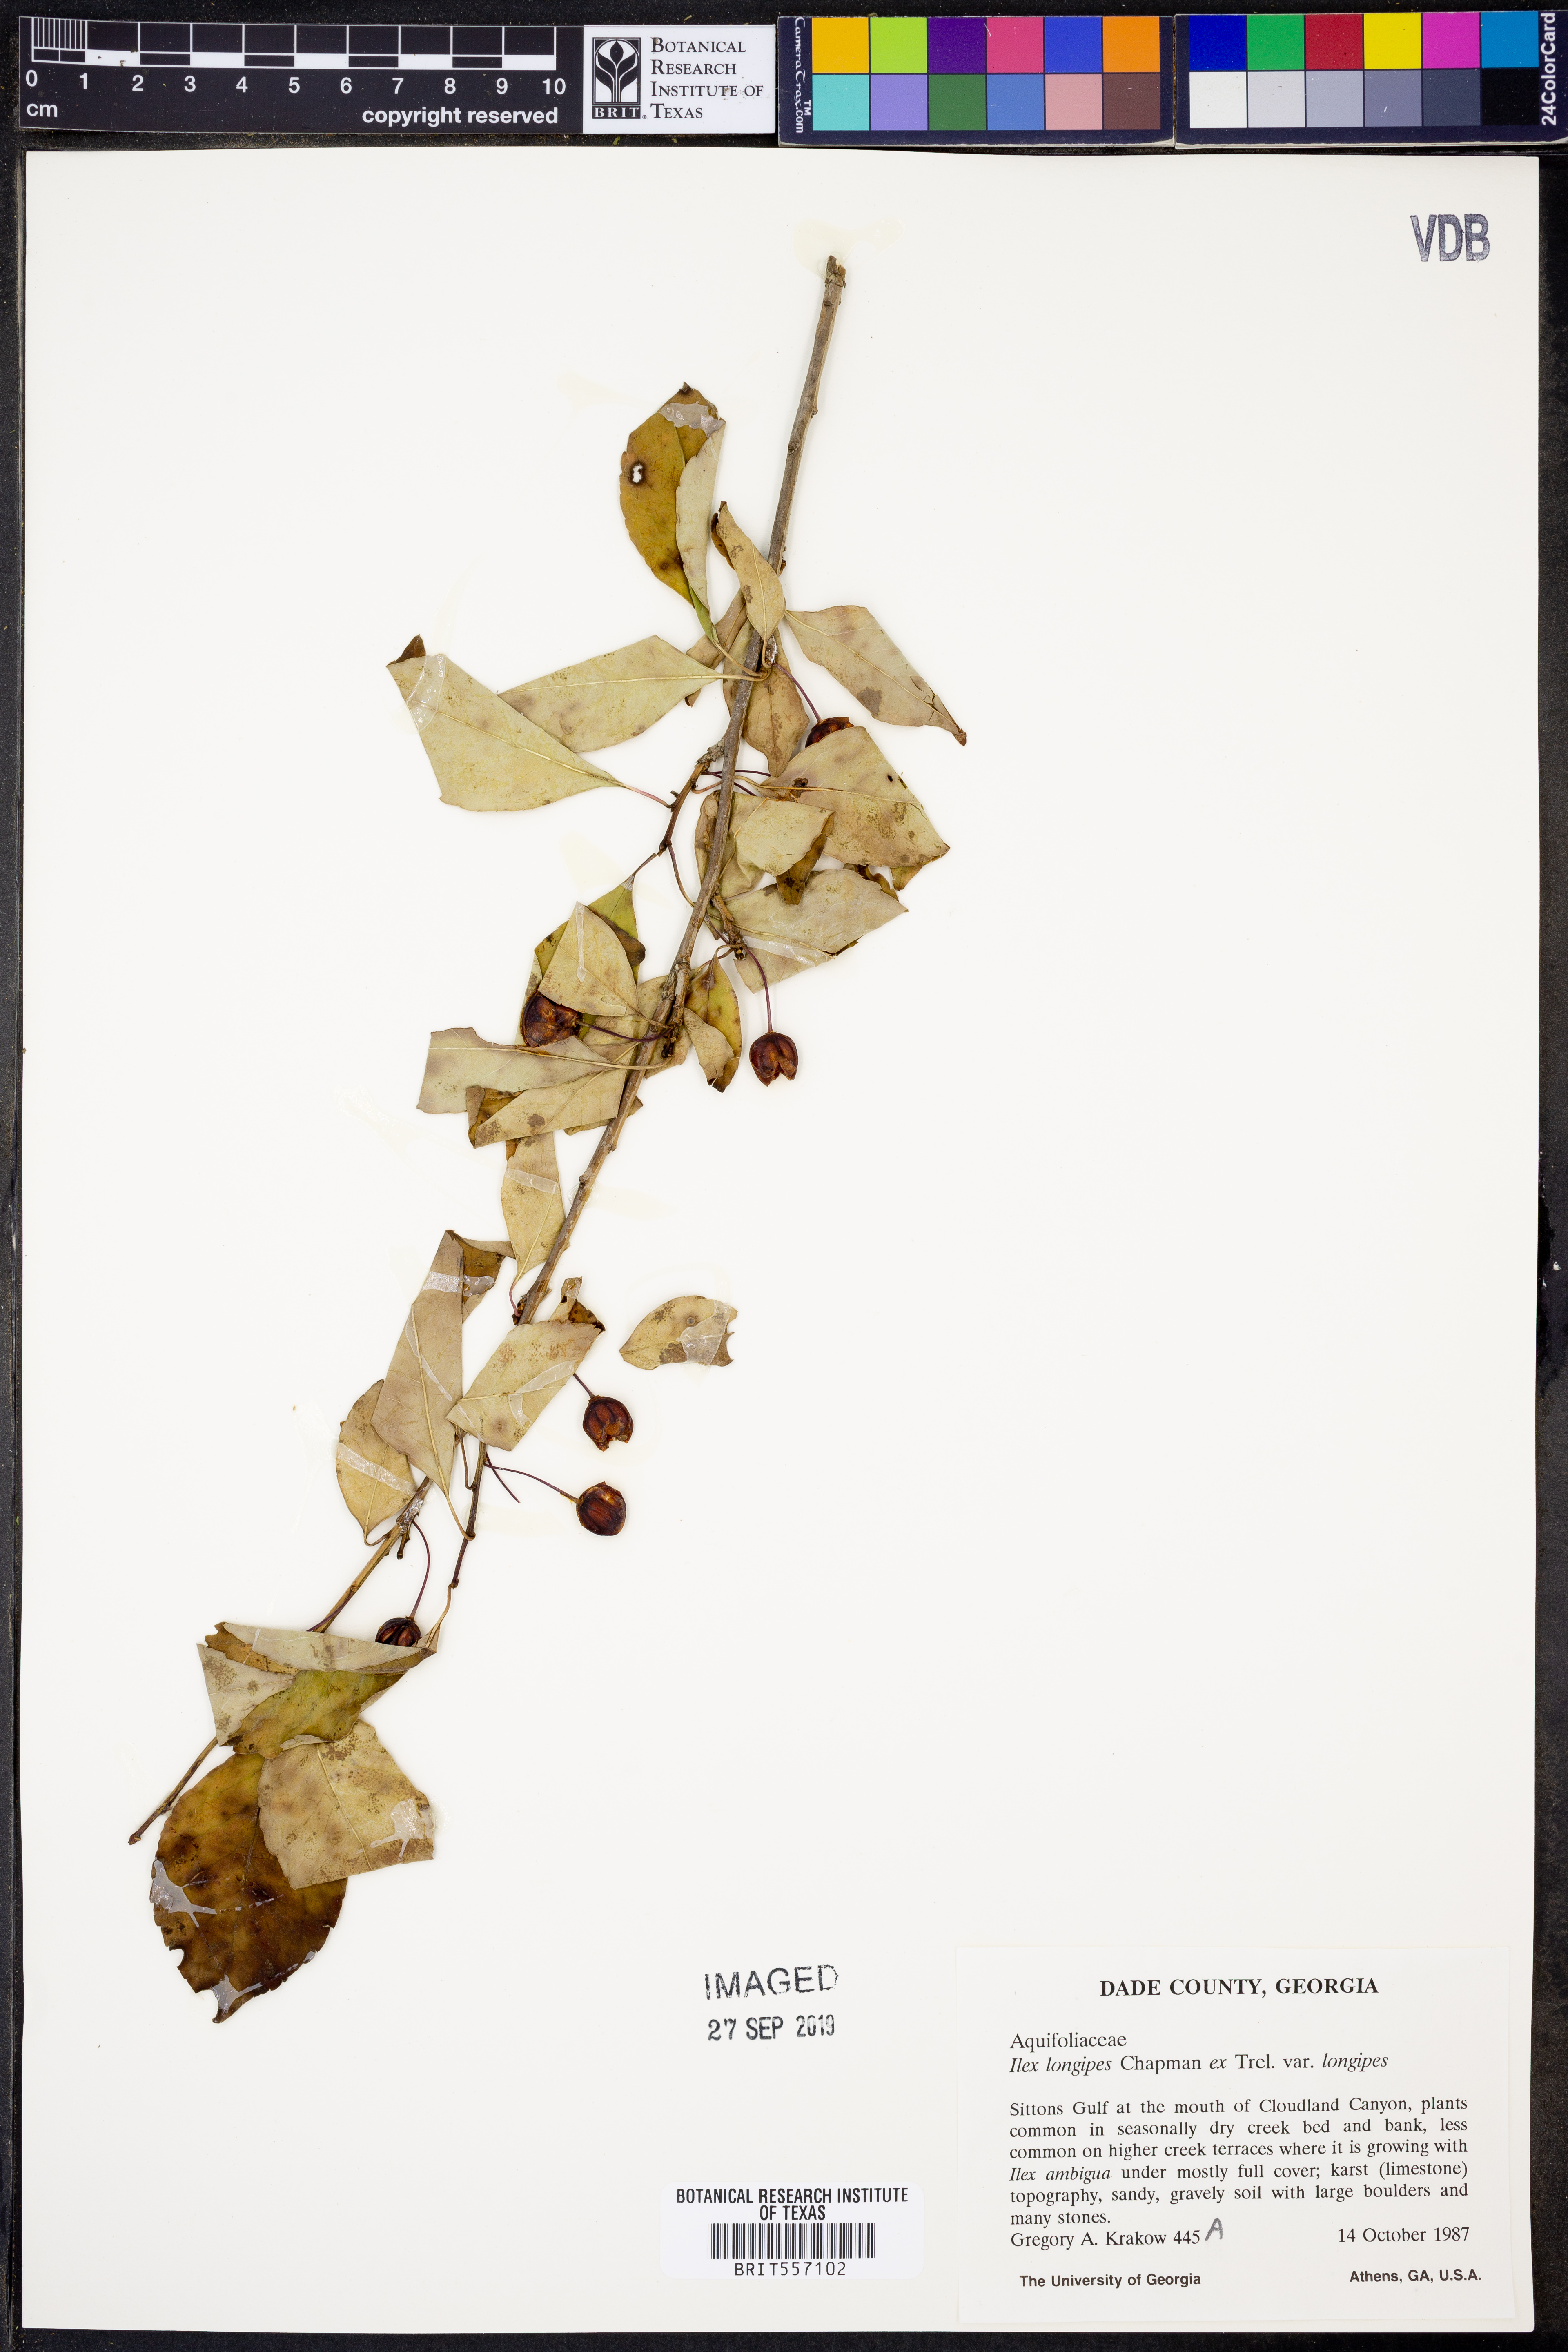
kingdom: Plantae
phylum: Tracheophyta
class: Magnoliopsida
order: Aquifoliales
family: Aquifoliaceae
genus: Ilex
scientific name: Ilex longipes
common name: Georgia holly
